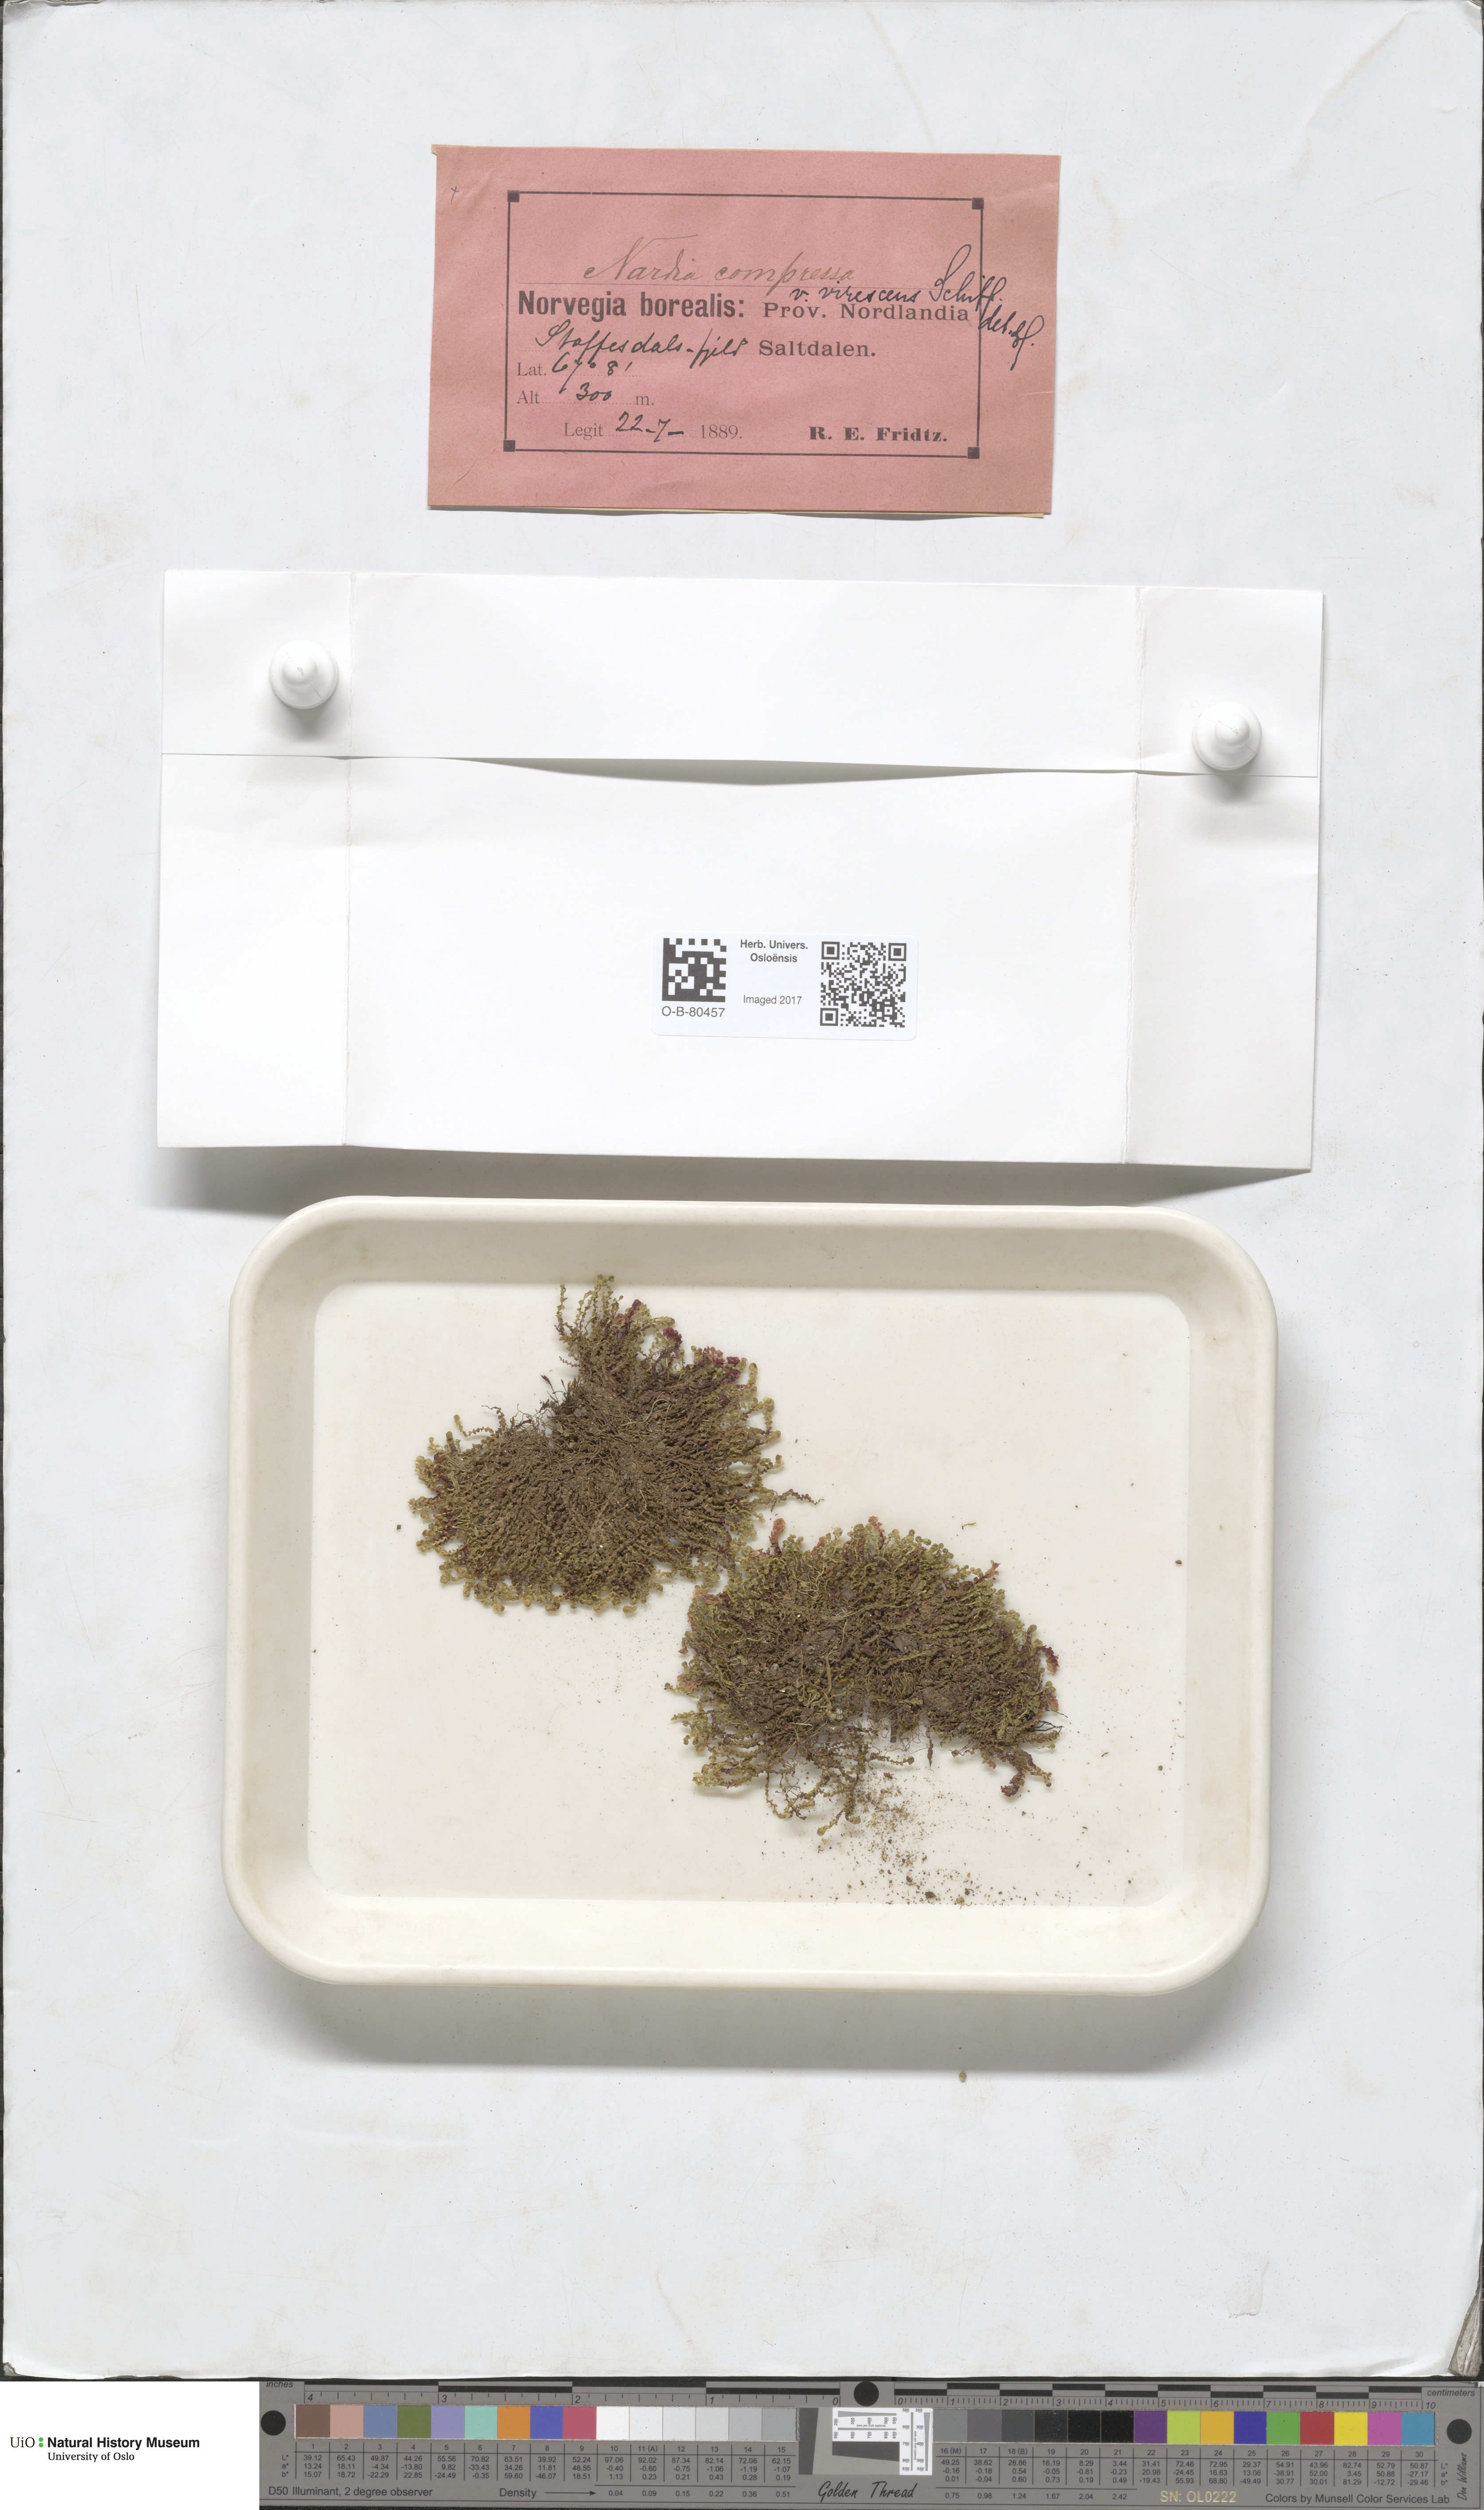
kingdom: Plantae
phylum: Marchantiophyta
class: Jungermanniopsida
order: Jungermanniales
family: Gymnomitriaceae
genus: Nardia
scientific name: Nardia compressa
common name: Compressed flapwort
